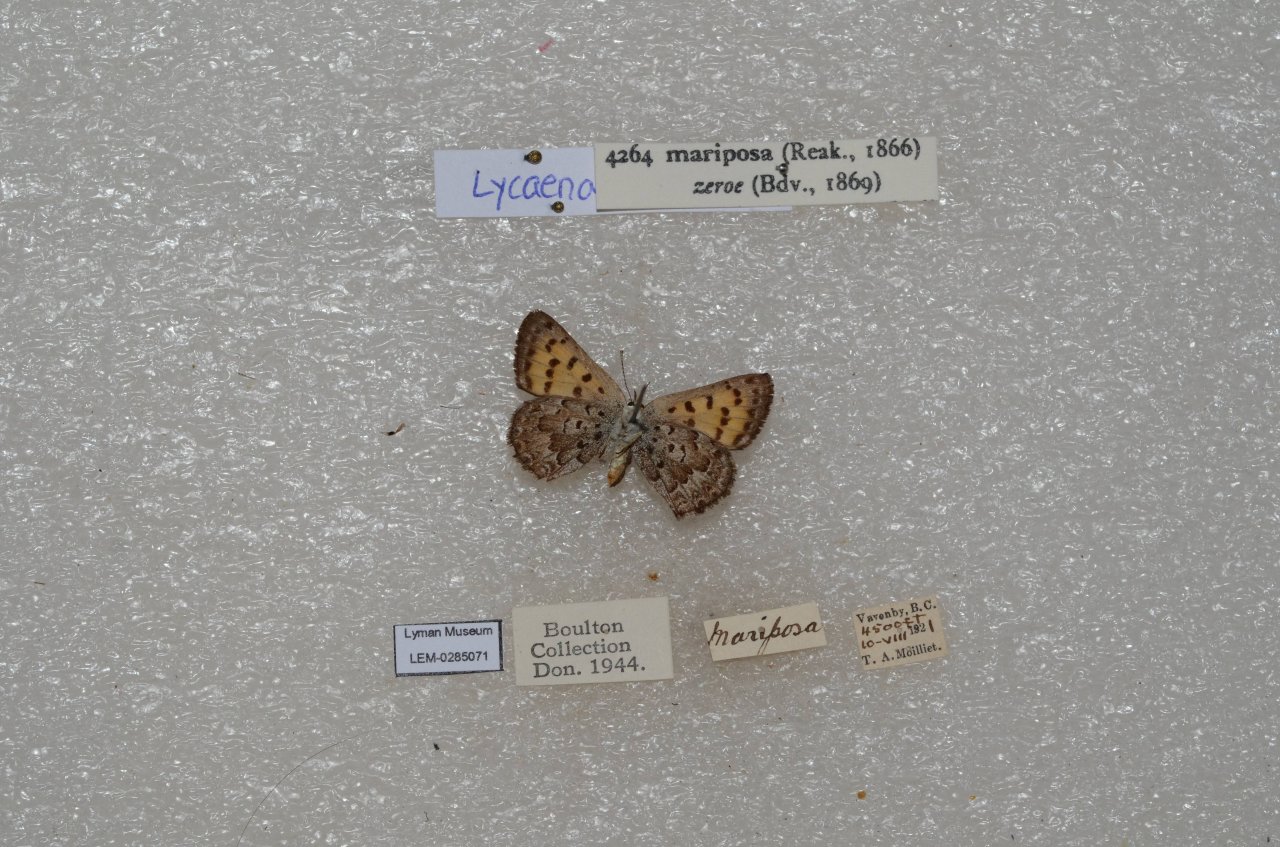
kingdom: Animalia
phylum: Arthropoda
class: Insecta
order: Lepidoptera
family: Lycaenidae
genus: Lycaena
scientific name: Lycaena mariposa
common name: Mariposa Copper
